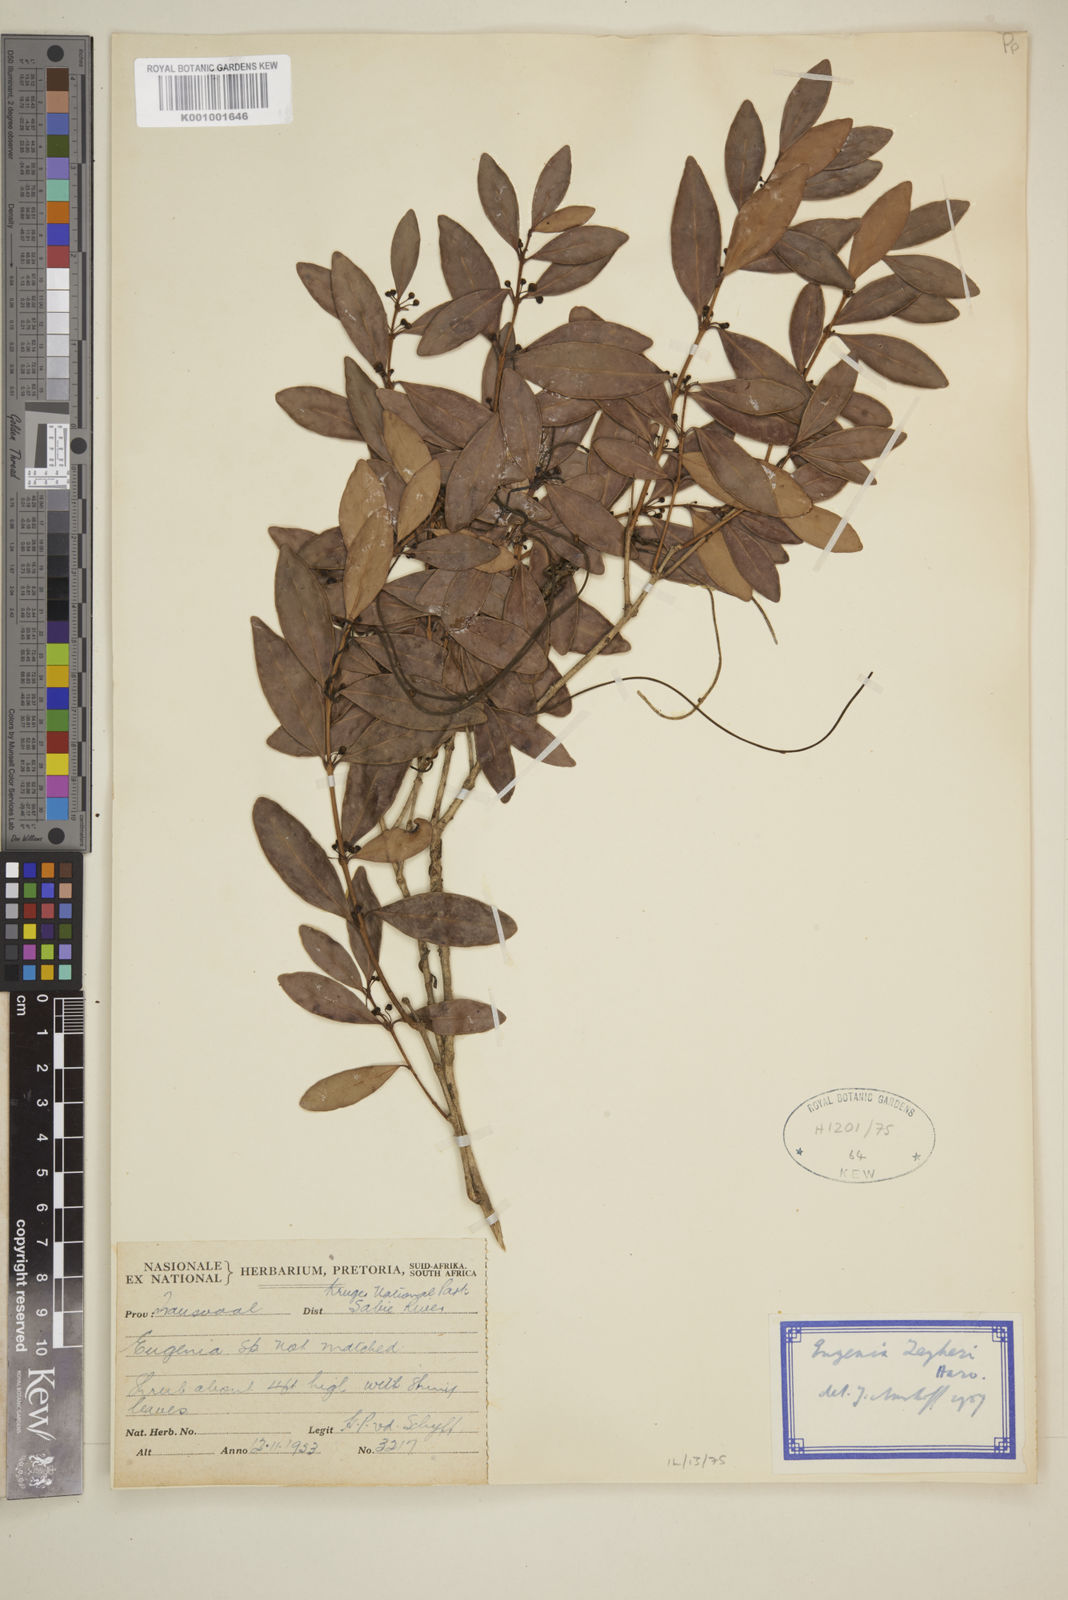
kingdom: Plantae
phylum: Tracheophyta
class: Magnoliopsida
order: Myrtales
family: Myrtaceae
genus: Eugenia
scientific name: Eugenia zeyheri
